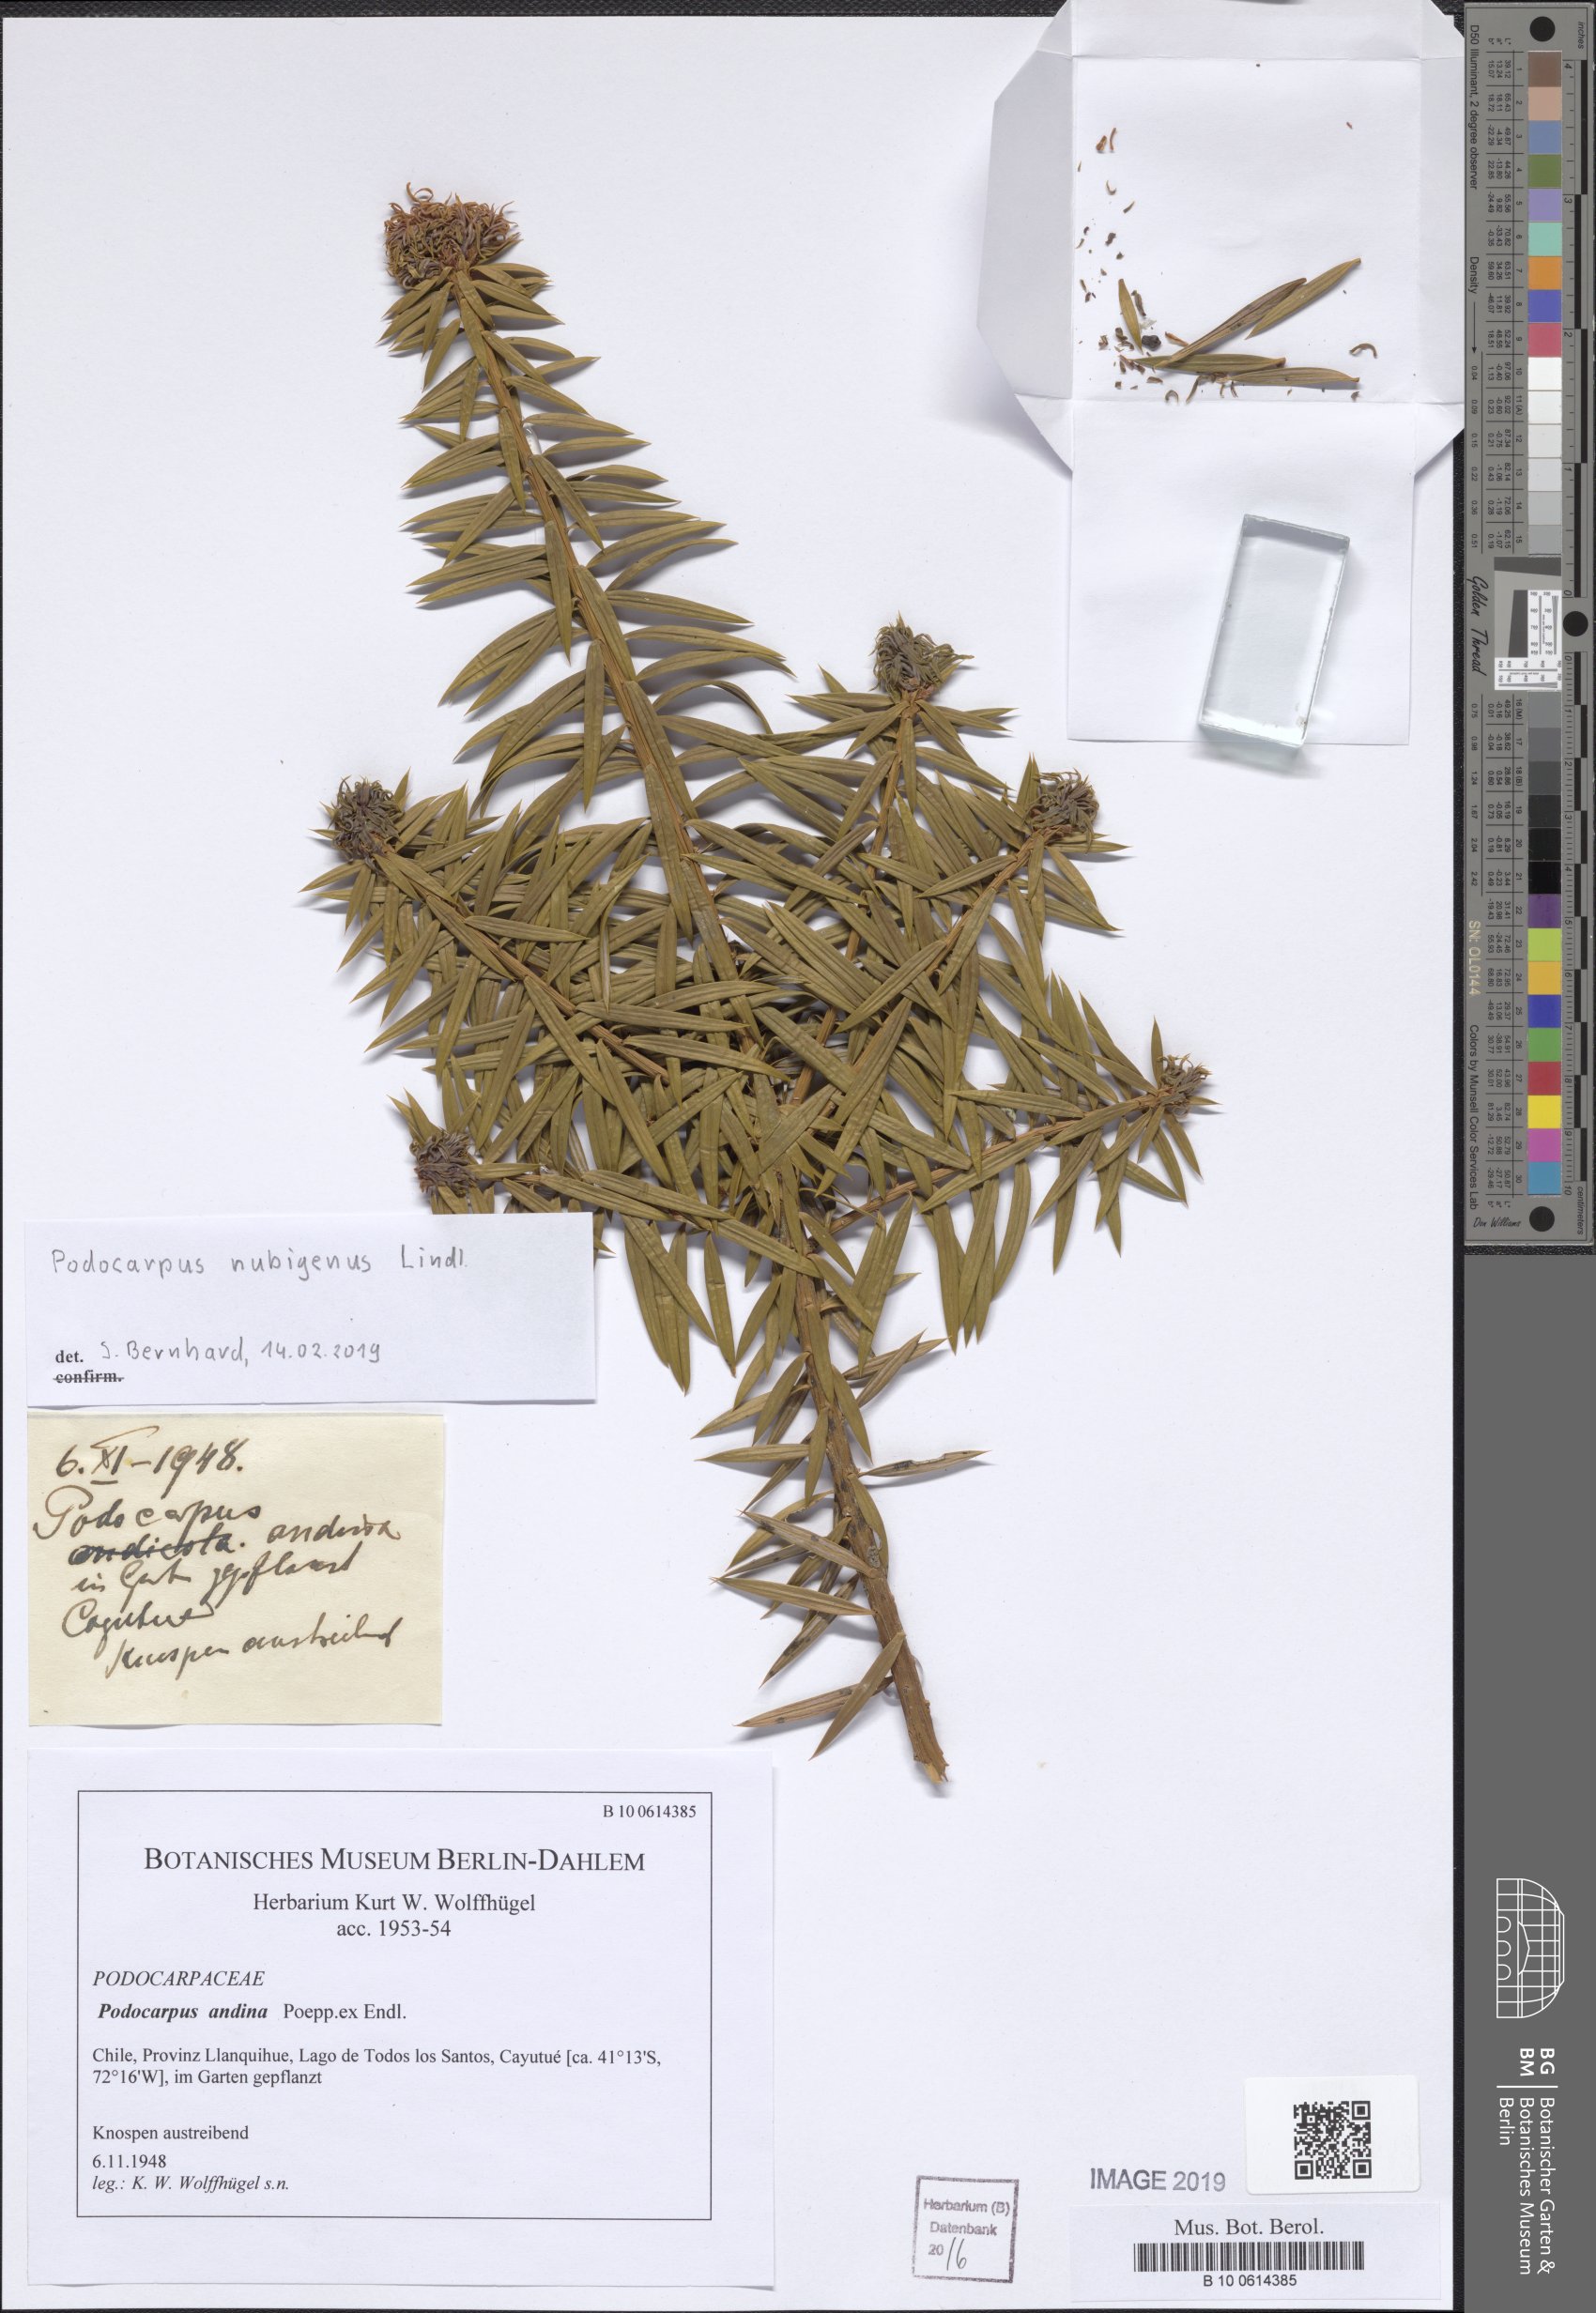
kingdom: Plantae
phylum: Tracheophyta
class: Pinopsida
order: Pinales
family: Podocarpaceae
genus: Prumnopitys
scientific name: Prumnopitys andina
